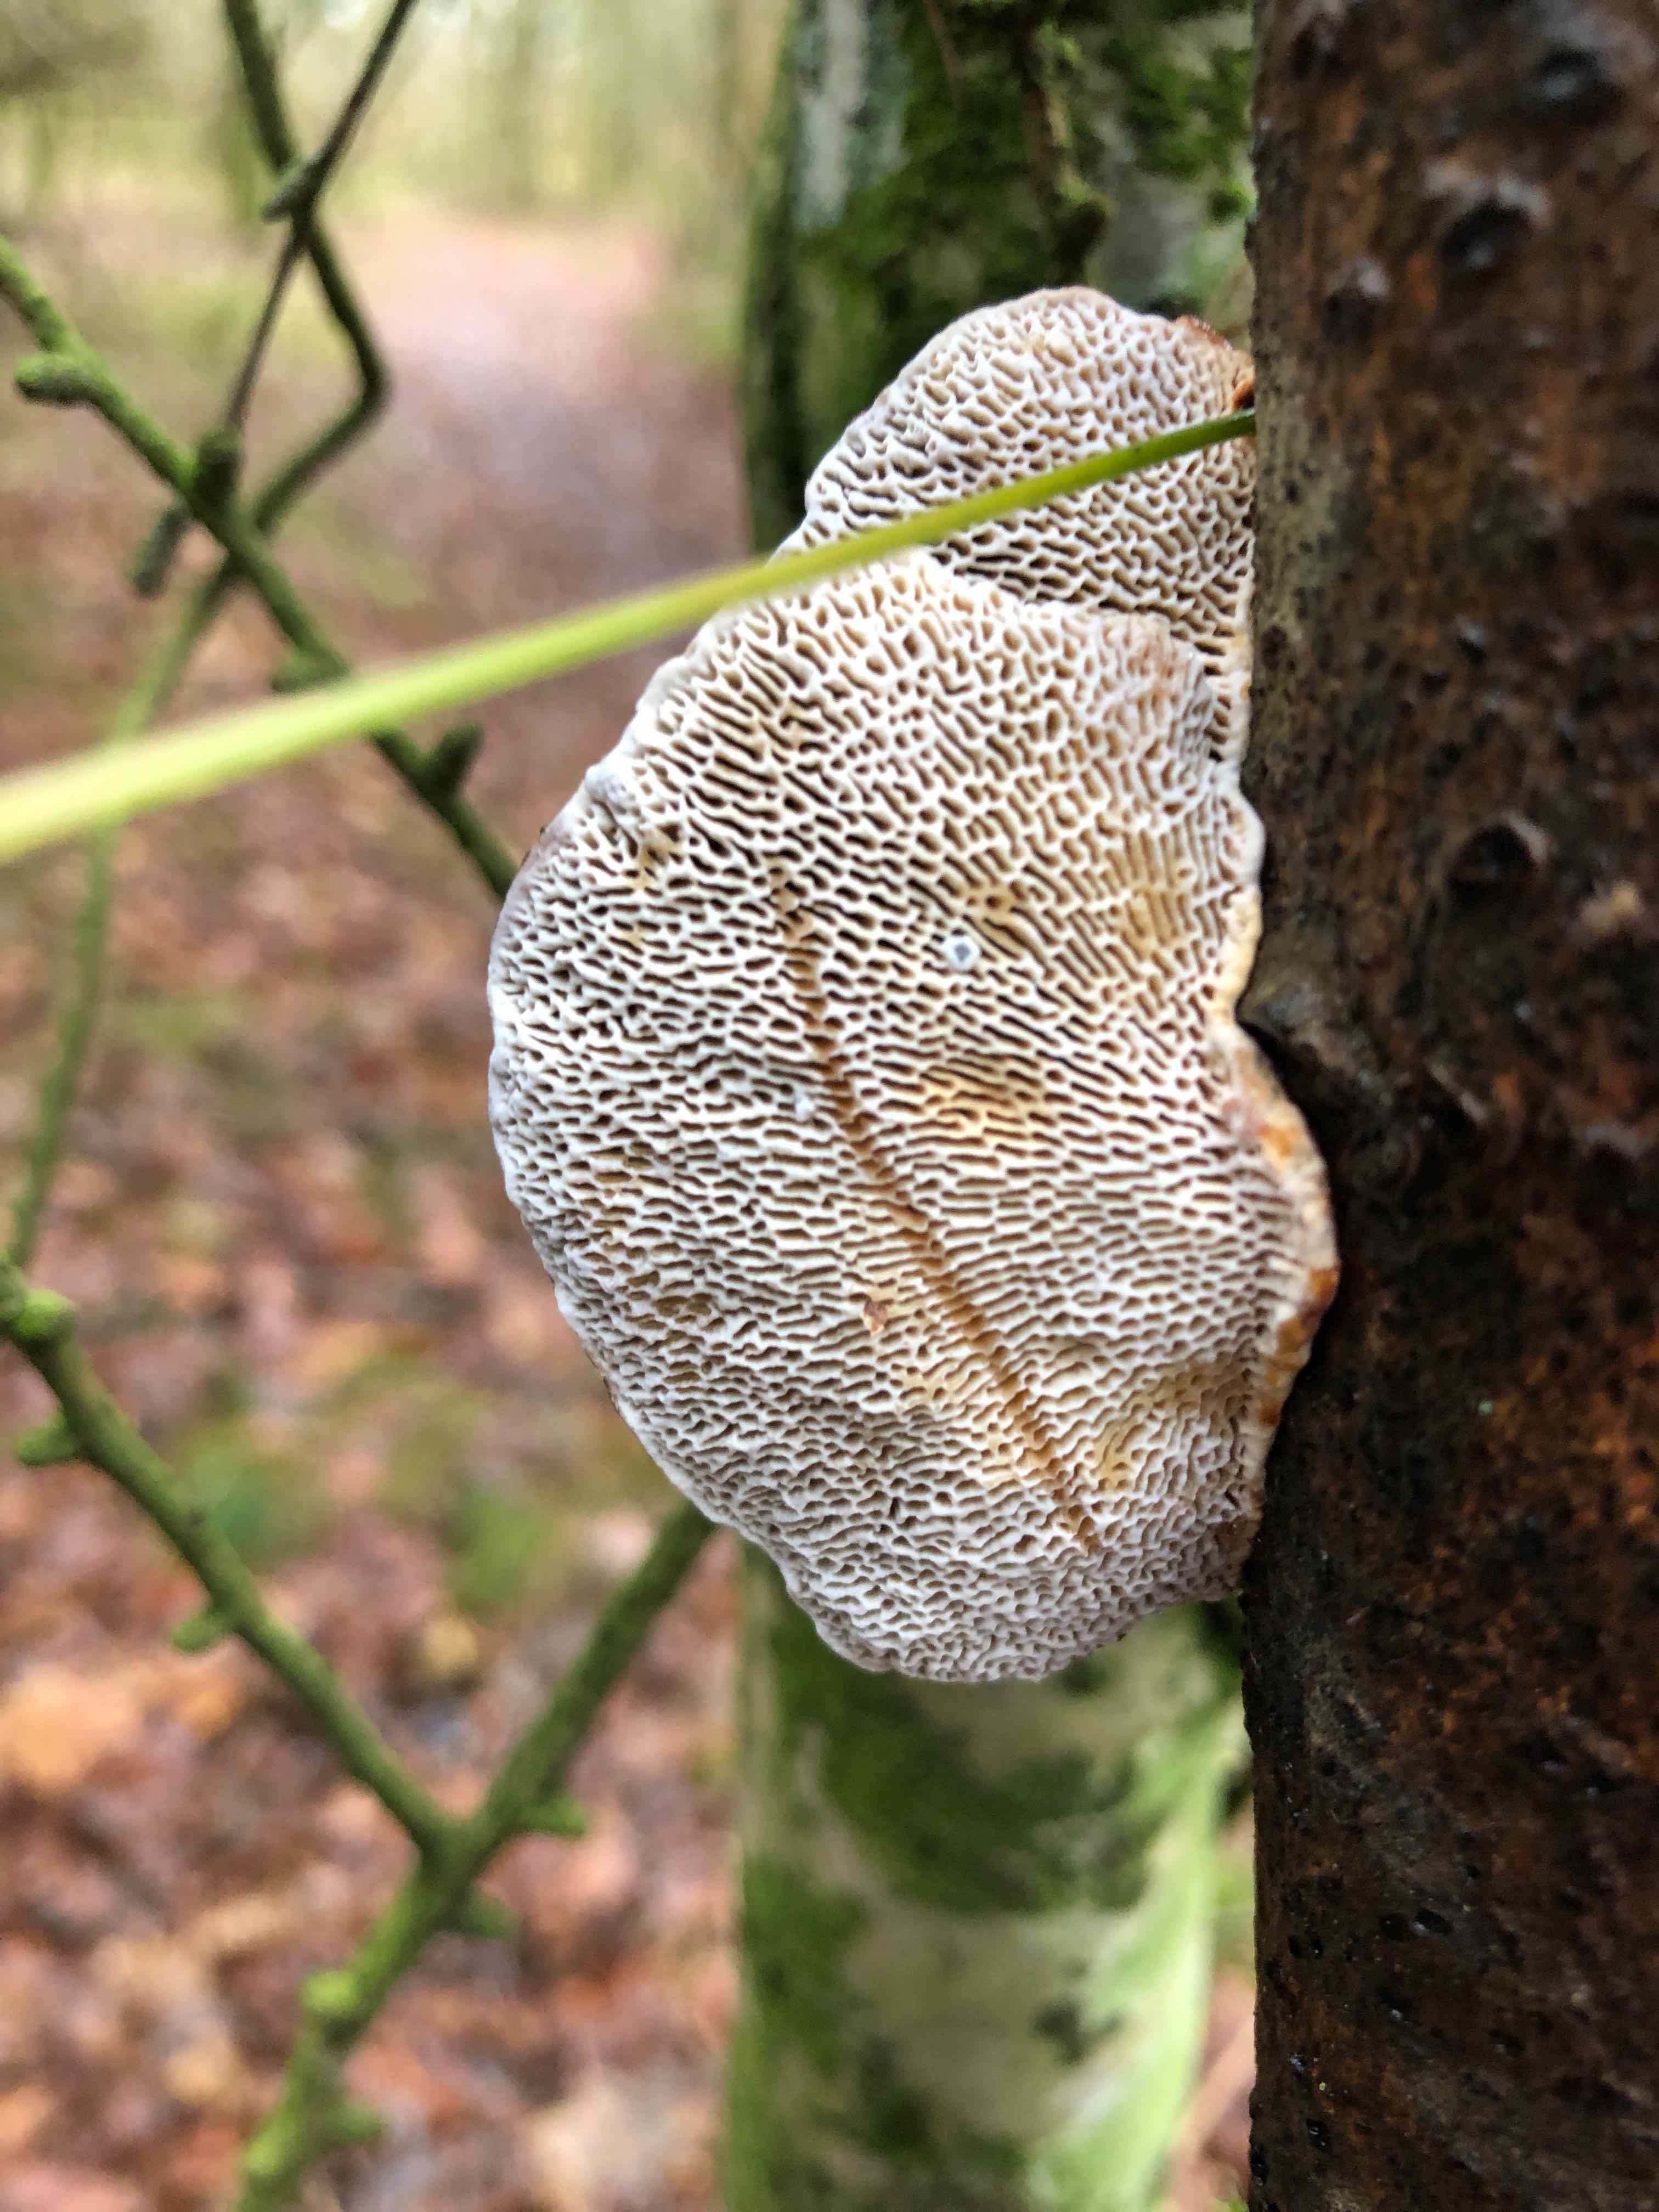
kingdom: Fungi
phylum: Basidiomycota
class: Agaricomycetes
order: Polyporales
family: Polyporaceae
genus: Daedaleopsis
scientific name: Daedaleopsis confragosa
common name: rødmende læderporesvamp
